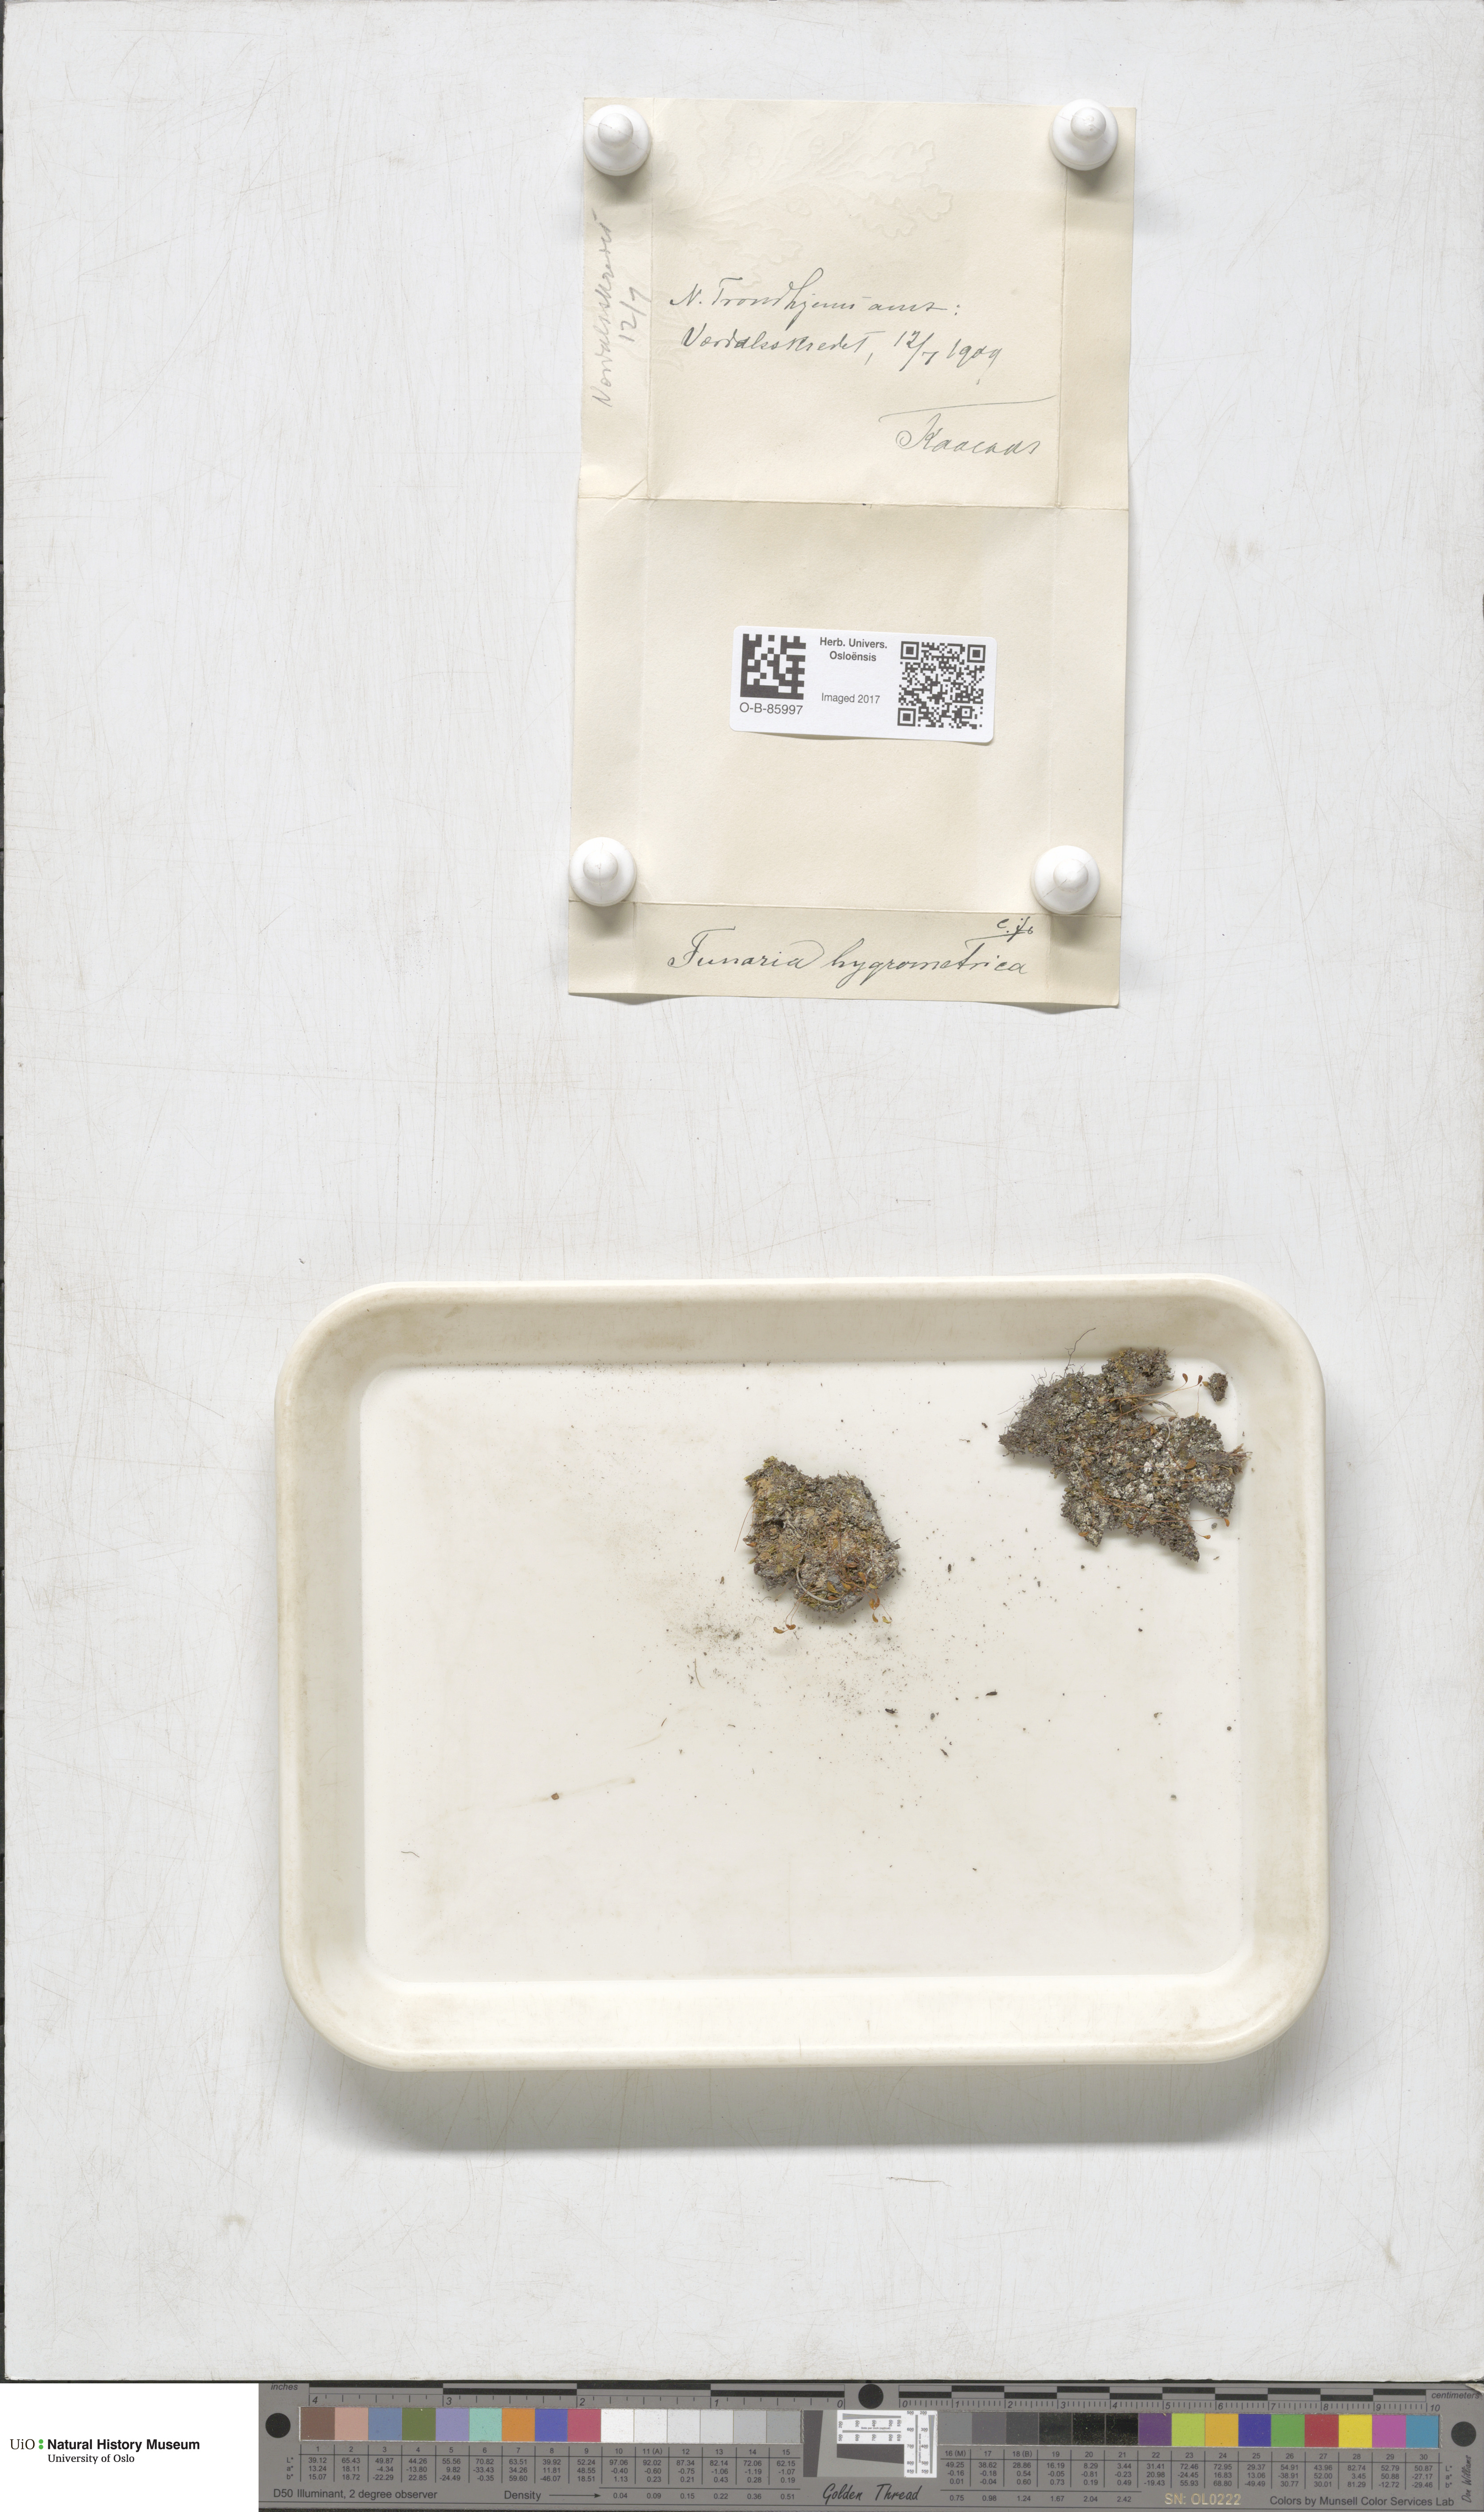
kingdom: Plantae
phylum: Bryophyta
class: Bryopsida
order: Funariales
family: Funariaceae
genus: Funaria
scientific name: Funaria hygrometrica
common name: Common cord moss
